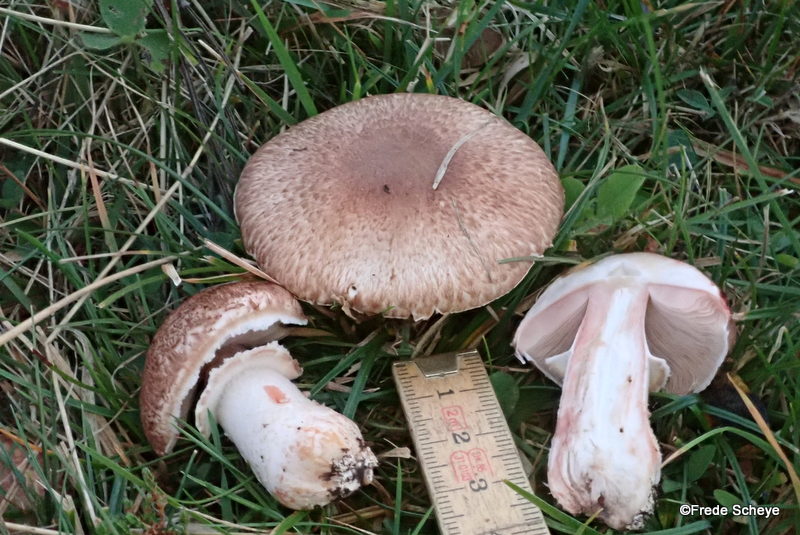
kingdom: Fungi
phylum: Basidiomycota
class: Agaricomycetes
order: Agaricales
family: Agaricaceae
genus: Agaricus
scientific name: Agaricus langei
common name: stor blod-champignon
